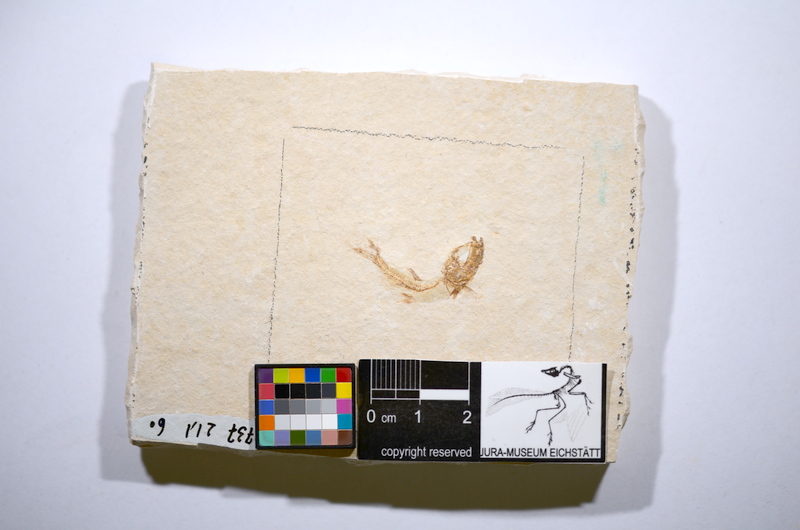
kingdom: Animalia
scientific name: Animalia
